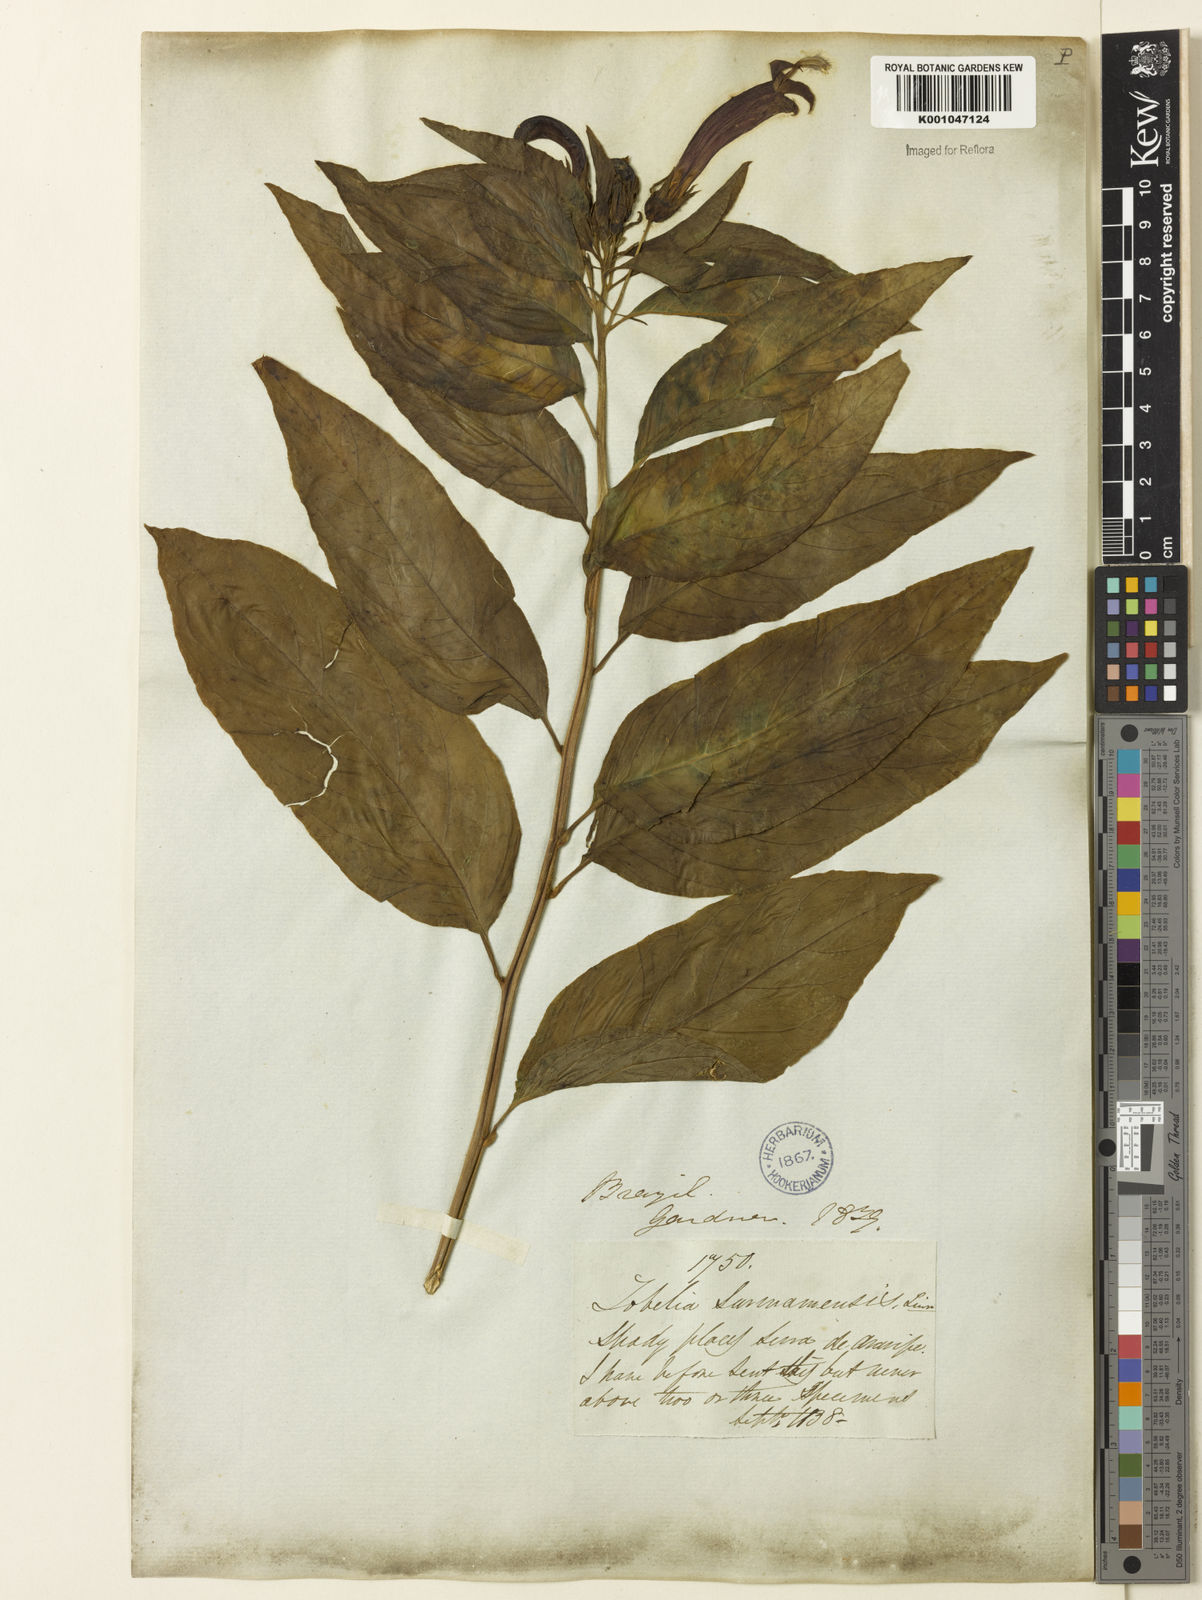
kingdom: Plantae
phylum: Tracheophyta
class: Magnoliopsida
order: Asterales
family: Campanulaceae
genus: Centropogon
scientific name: Centropogon cornutus
